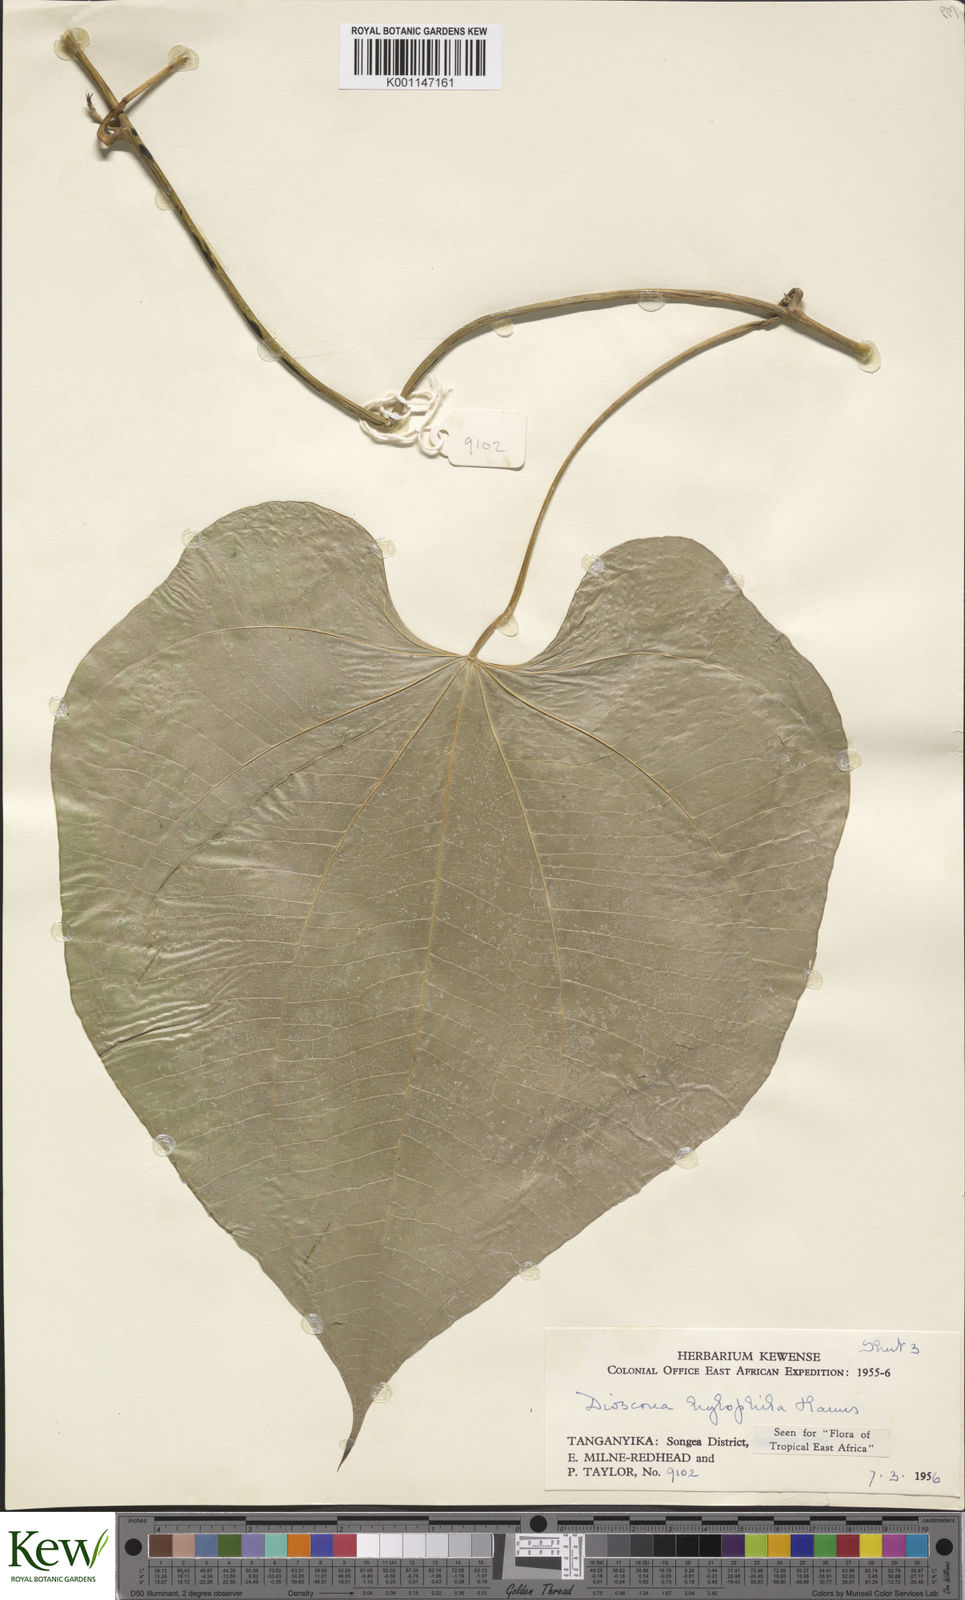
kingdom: Plantae
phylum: Tracheophyta
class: Liliopsida
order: Dioscoreales
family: Dioscoreaceae
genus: Dioscorea
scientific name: Dioscorea
